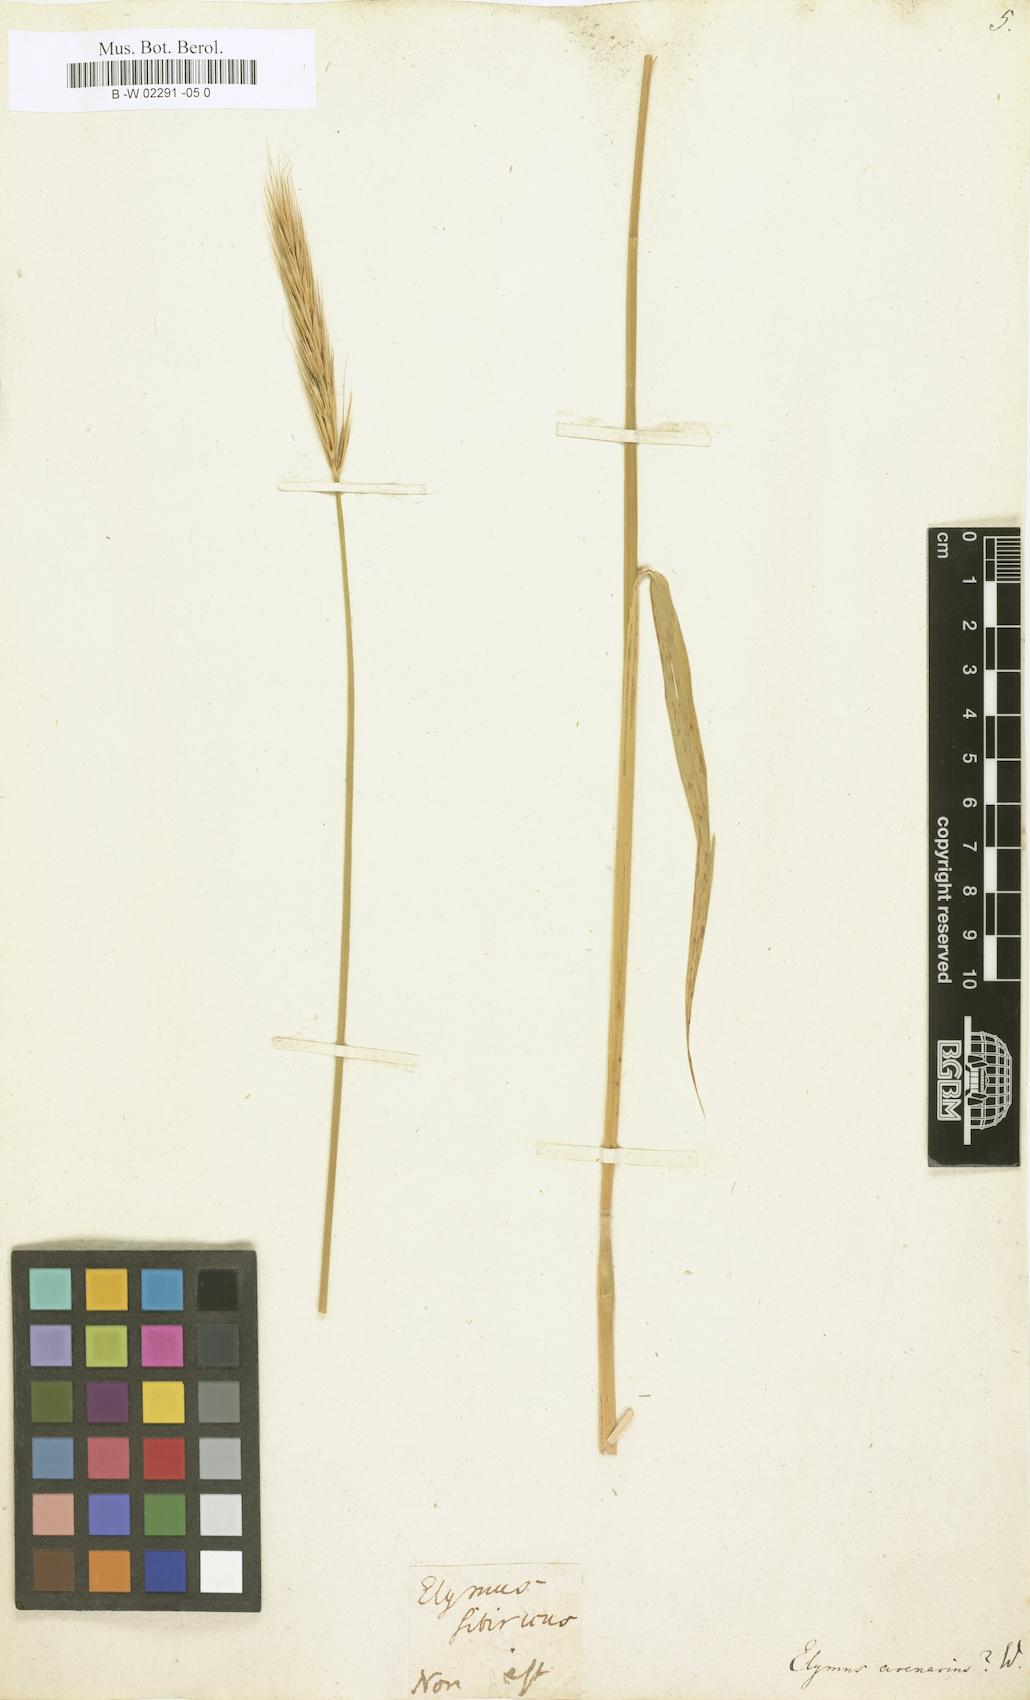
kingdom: Plantae
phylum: Tracheophyta
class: Liliopsida
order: Poales
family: Poaceae
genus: Leymus
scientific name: Leymus arenarius
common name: Lyme-grass
